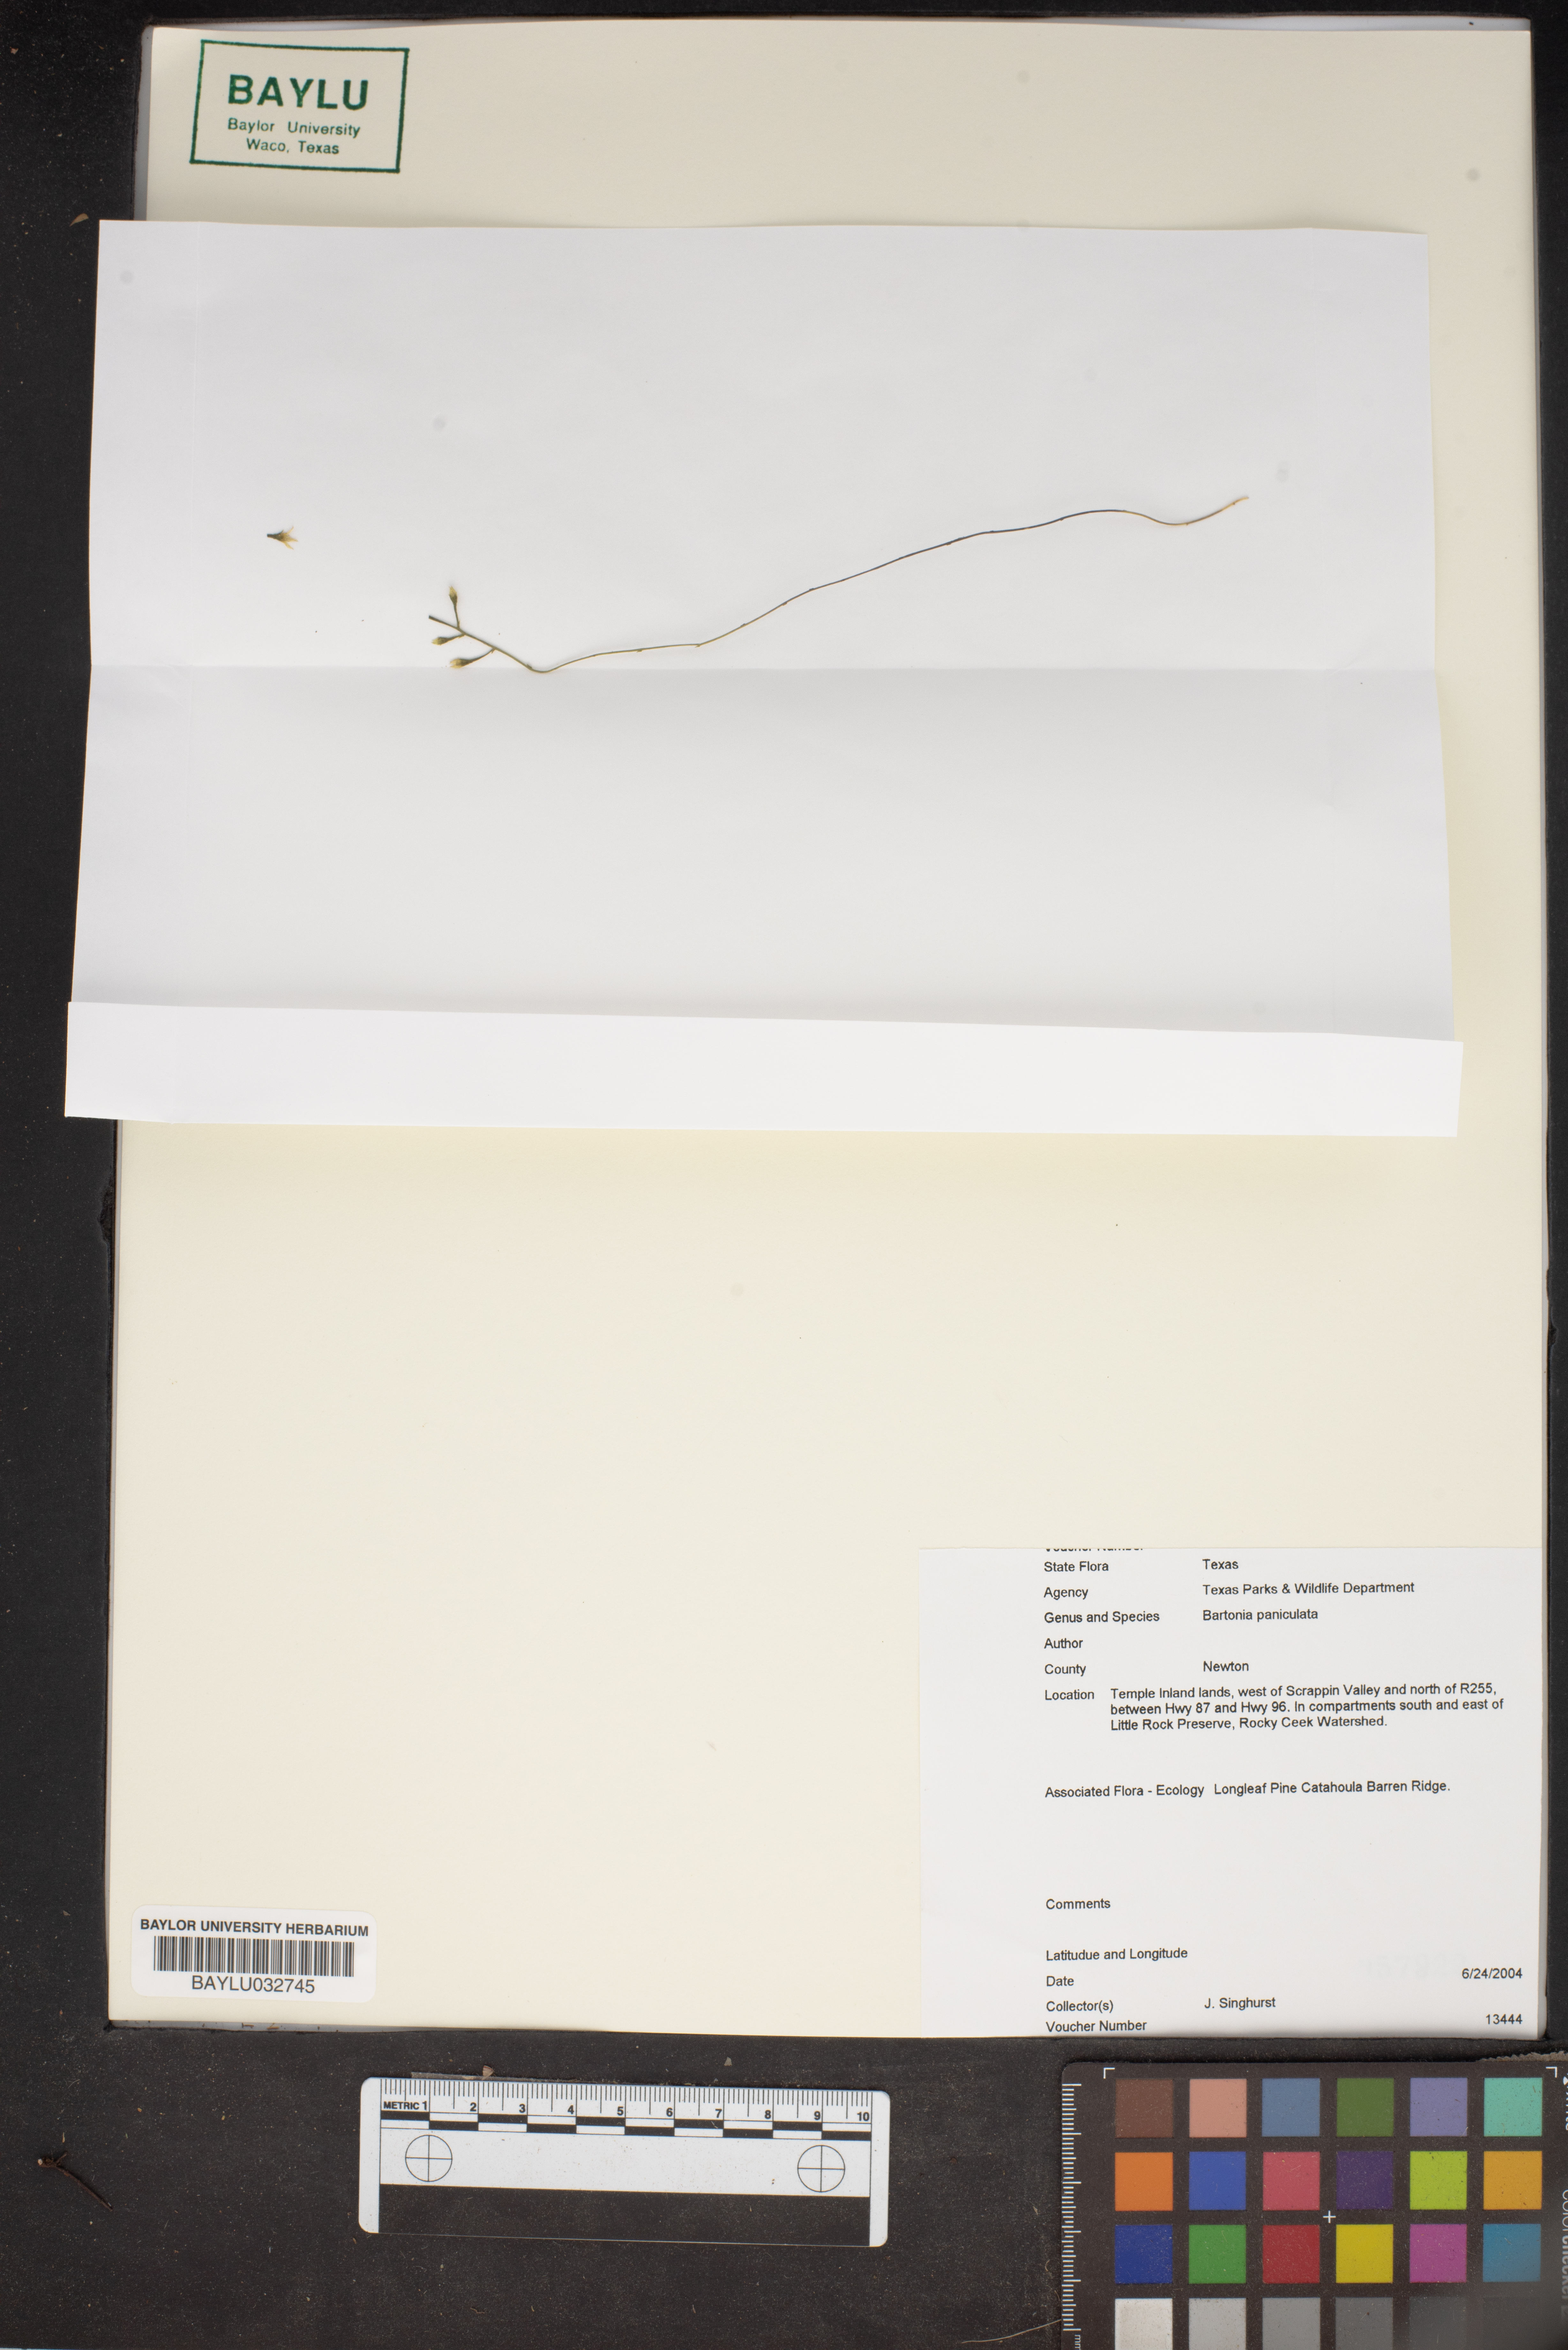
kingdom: Plantae
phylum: Tracheophyta
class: Magnoliopsida
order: Gentianales
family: Gentianaceae
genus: Bartonia
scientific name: Bartonia paniculata
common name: Branched bartonia
